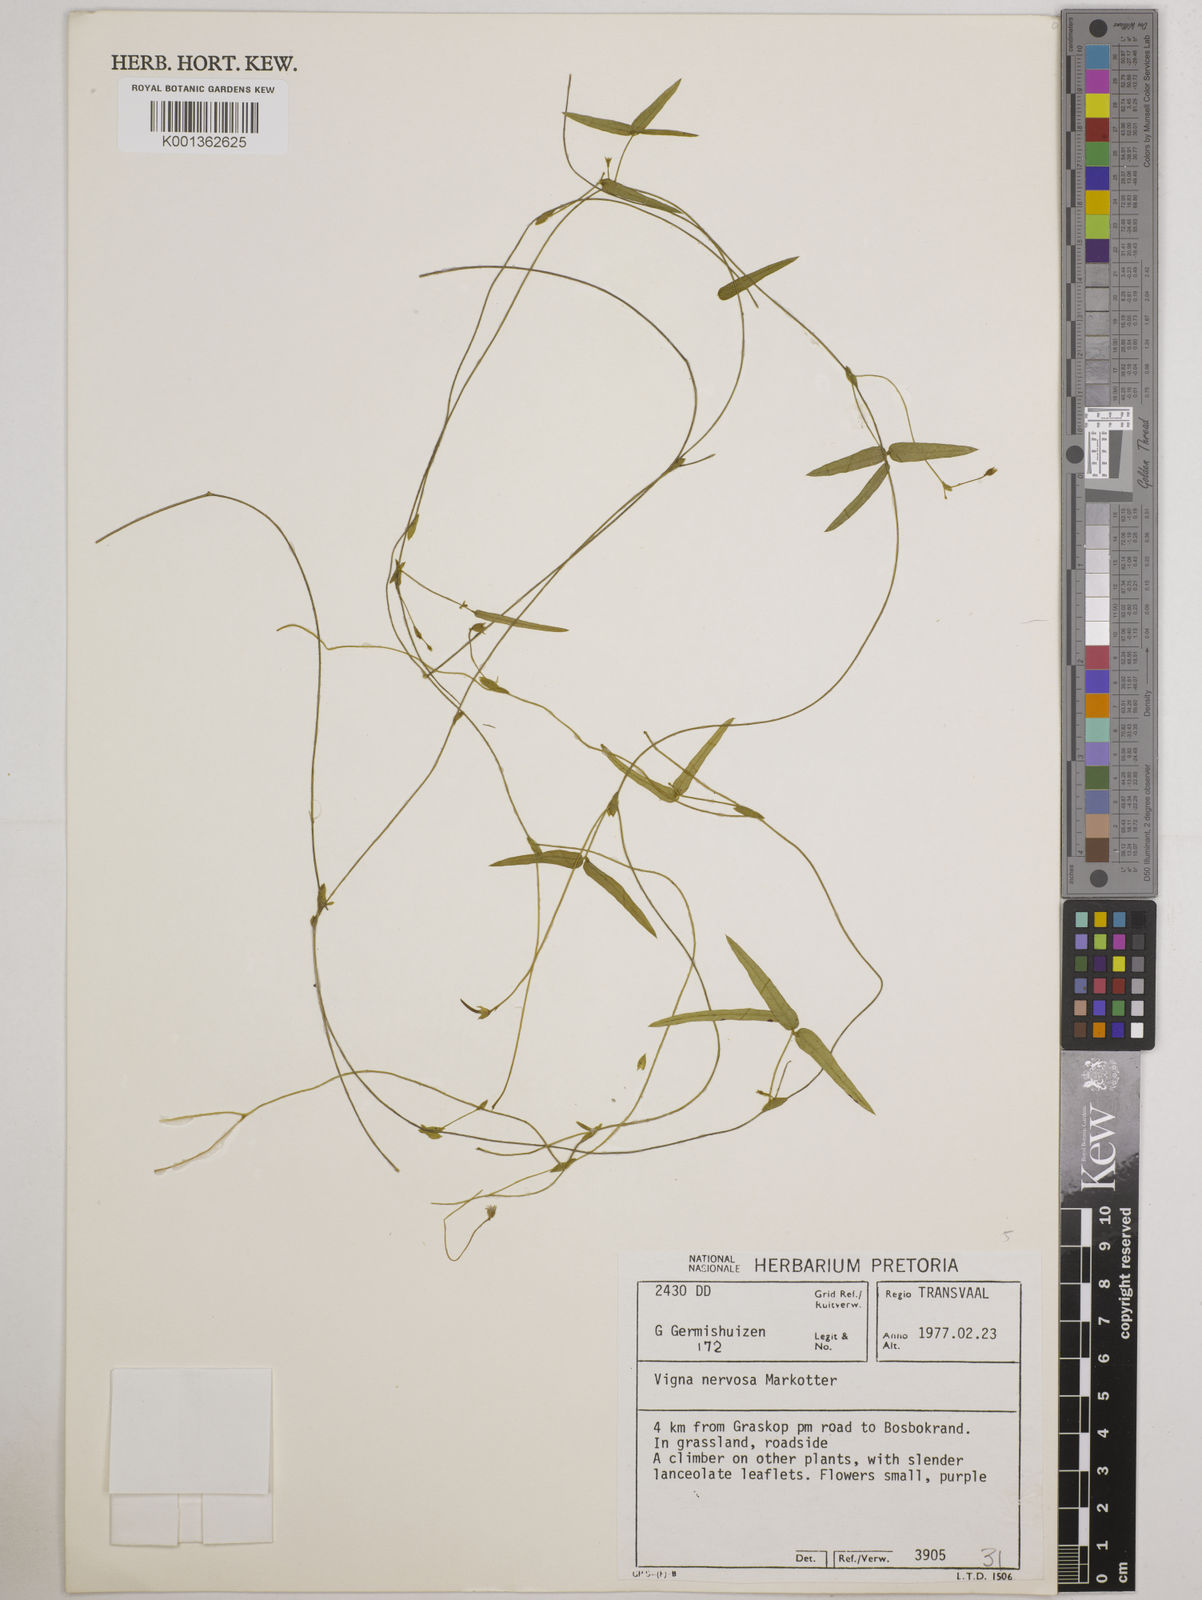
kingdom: Plantae
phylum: Tracheophyta
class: Magnoliopsida
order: Fabales
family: Fabaceae
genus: Vigna
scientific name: Vigna nervosa
